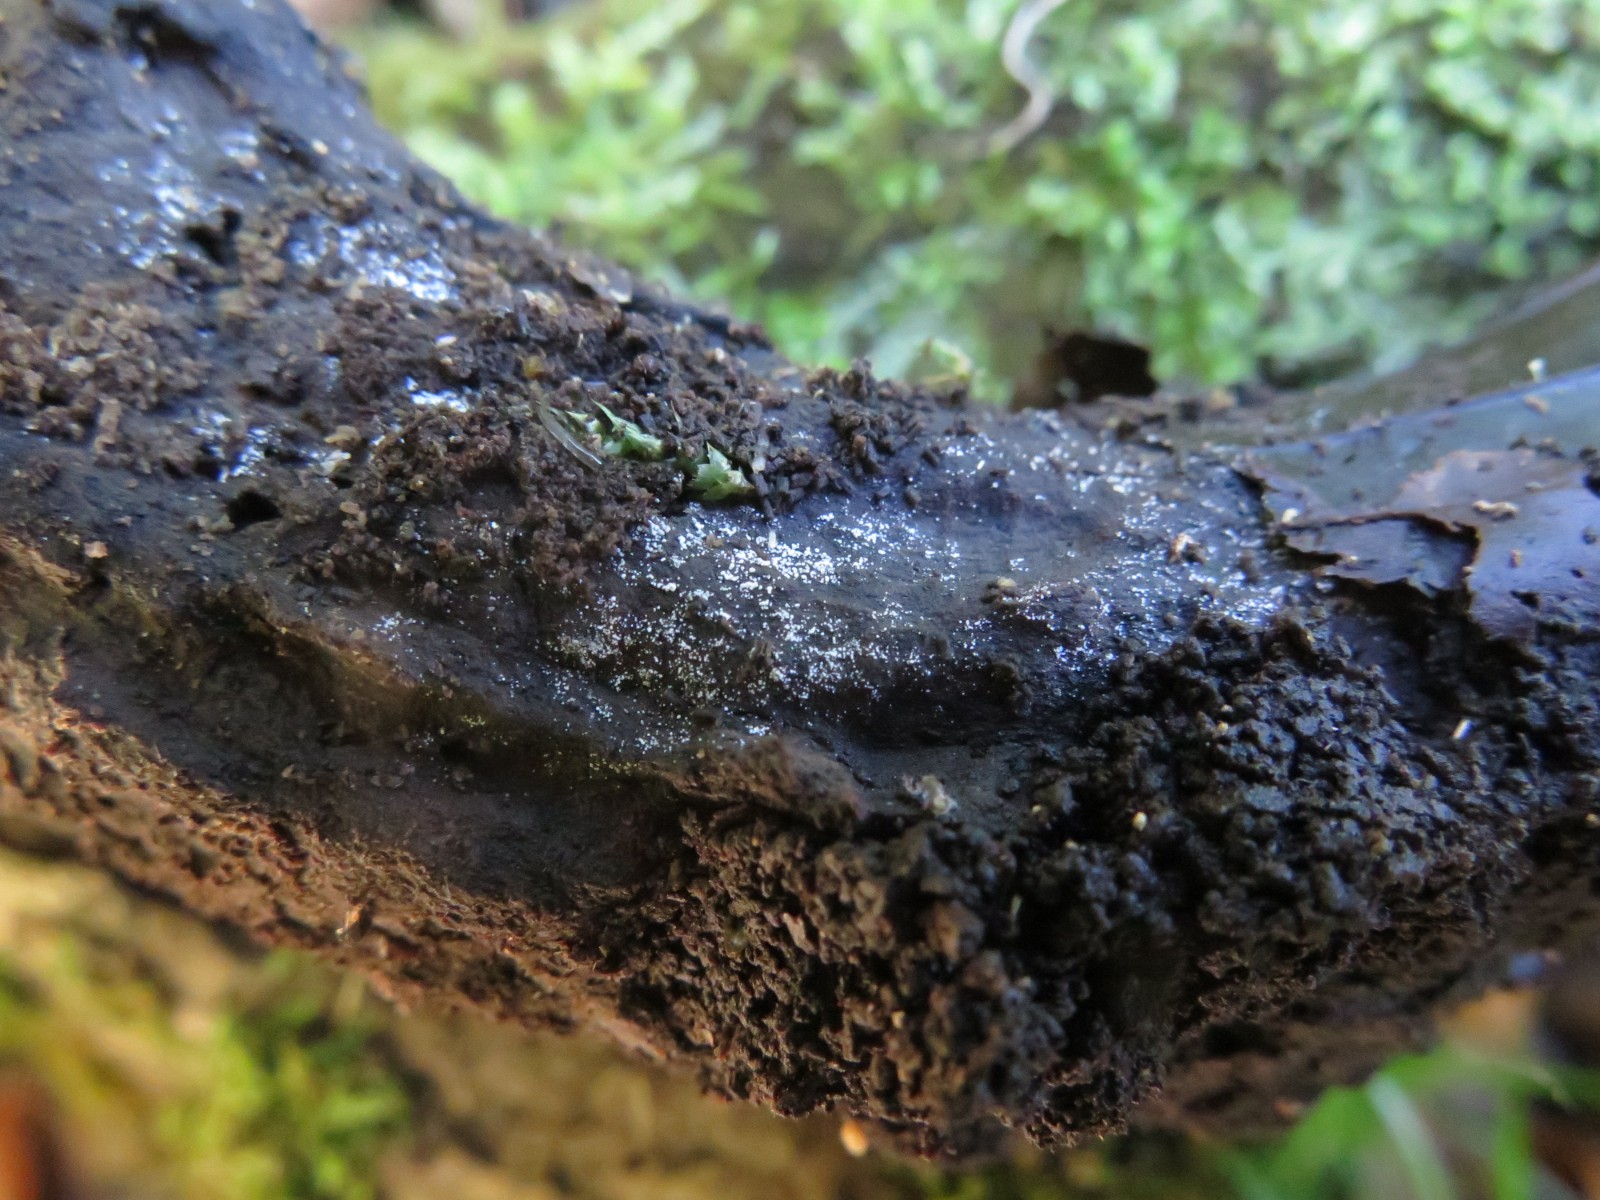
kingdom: Fungi
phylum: Basidiomycota
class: Agaricomycetes
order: Polyporales
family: Meruliaceae
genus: Bulbillomyces
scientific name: Bulbillomyces farinosus
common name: æg-kalkskind
